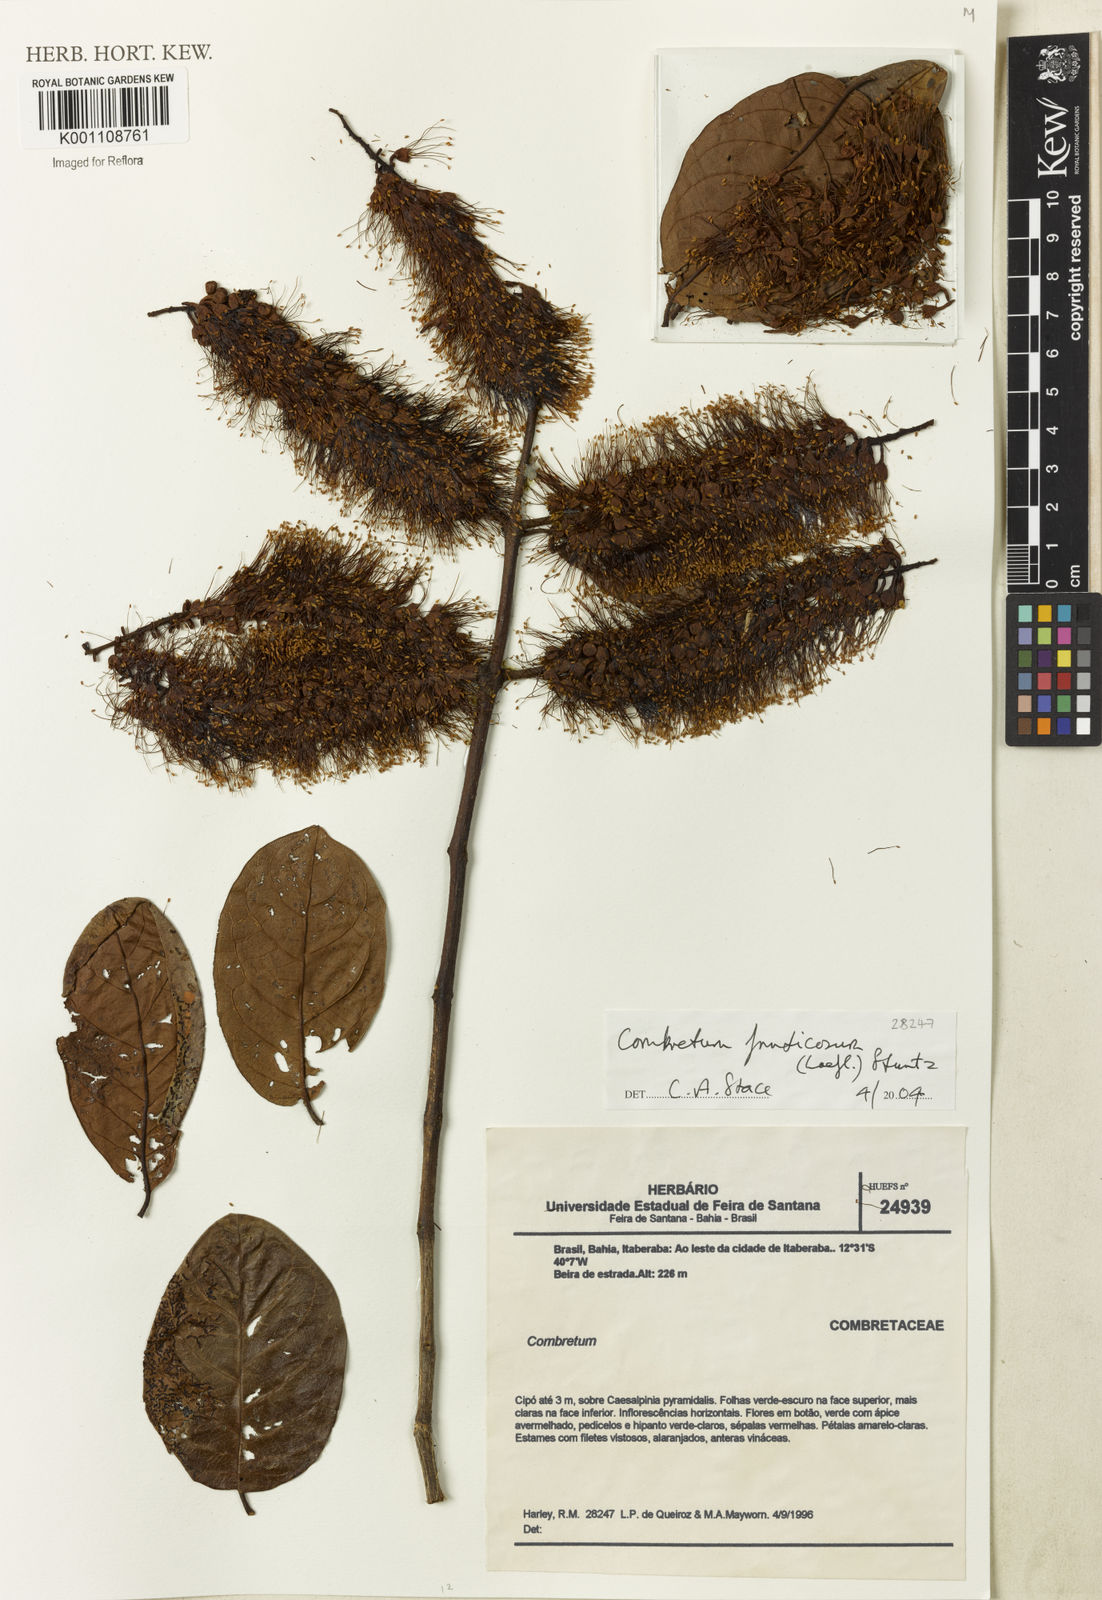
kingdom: Plantae
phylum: Tracheophyta
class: Magnoliopsida
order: Myrtales
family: Combretaceae
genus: Combretum
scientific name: Combretum fruticosum
